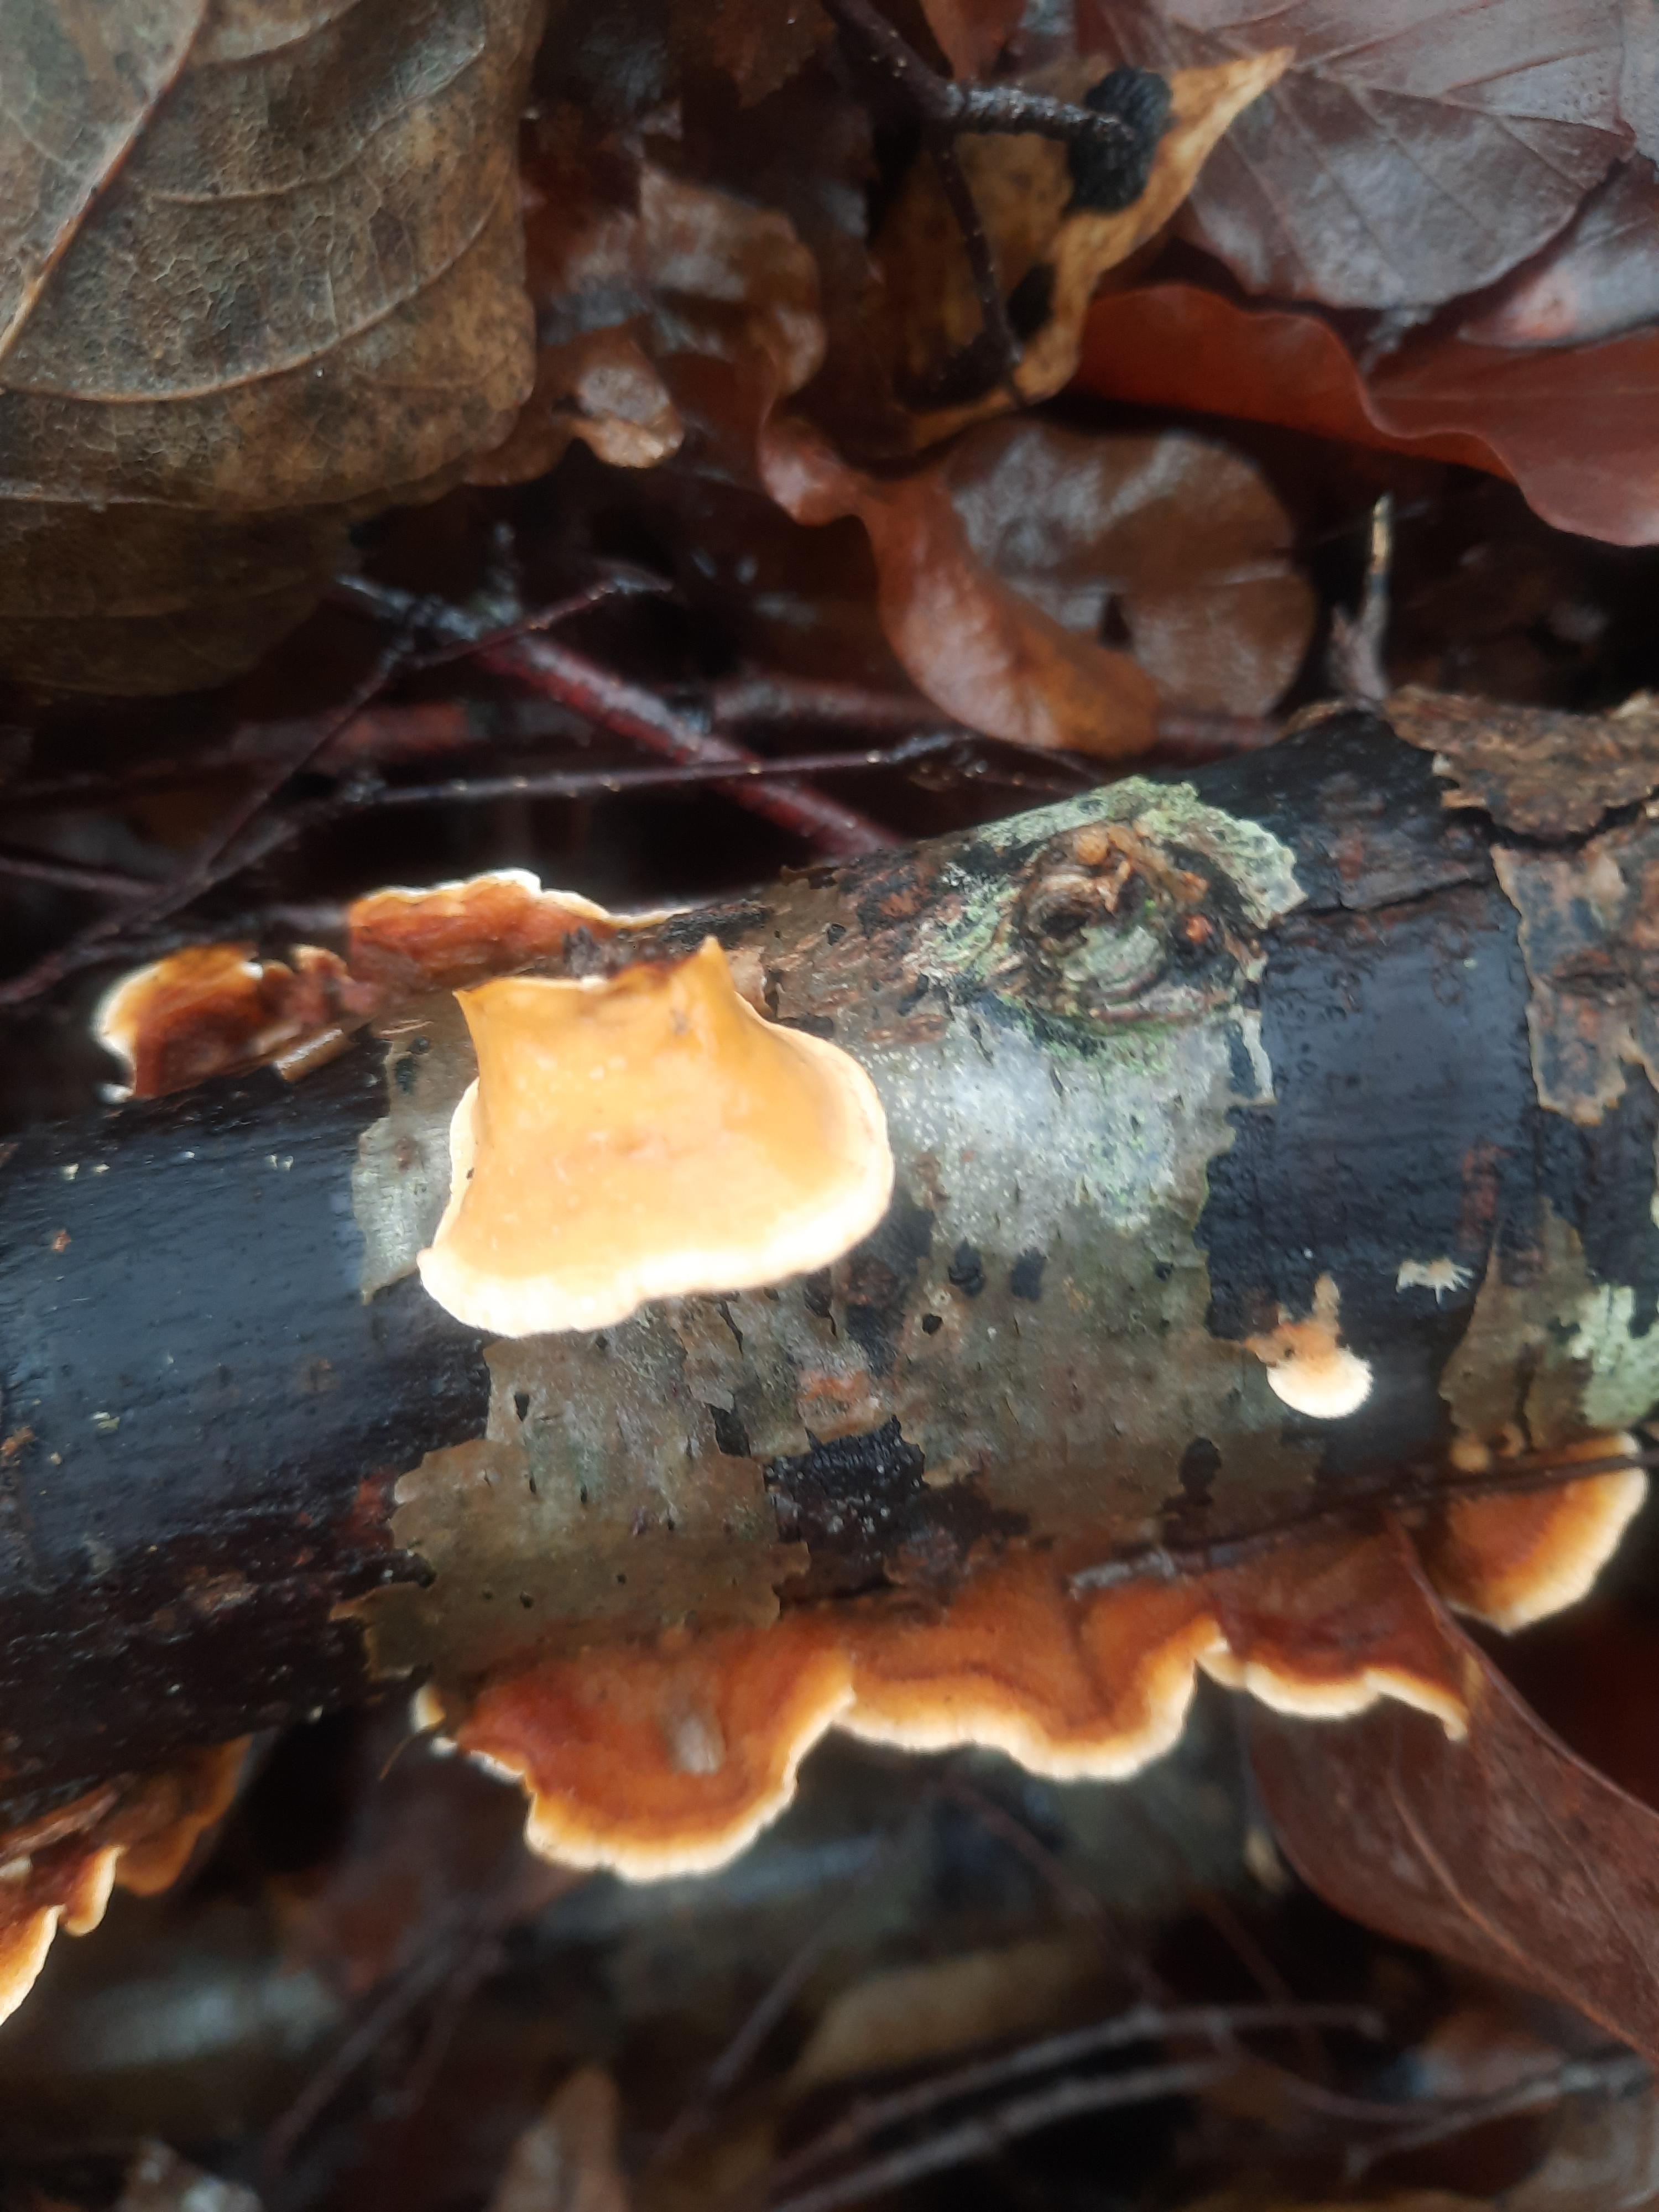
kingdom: Fungi
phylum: Basidiomycota
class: Agaricomycetes
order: Russulales
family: Stereaceae
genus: Stereum
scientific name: Stereum hirsutum
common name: håret lædersvamp
